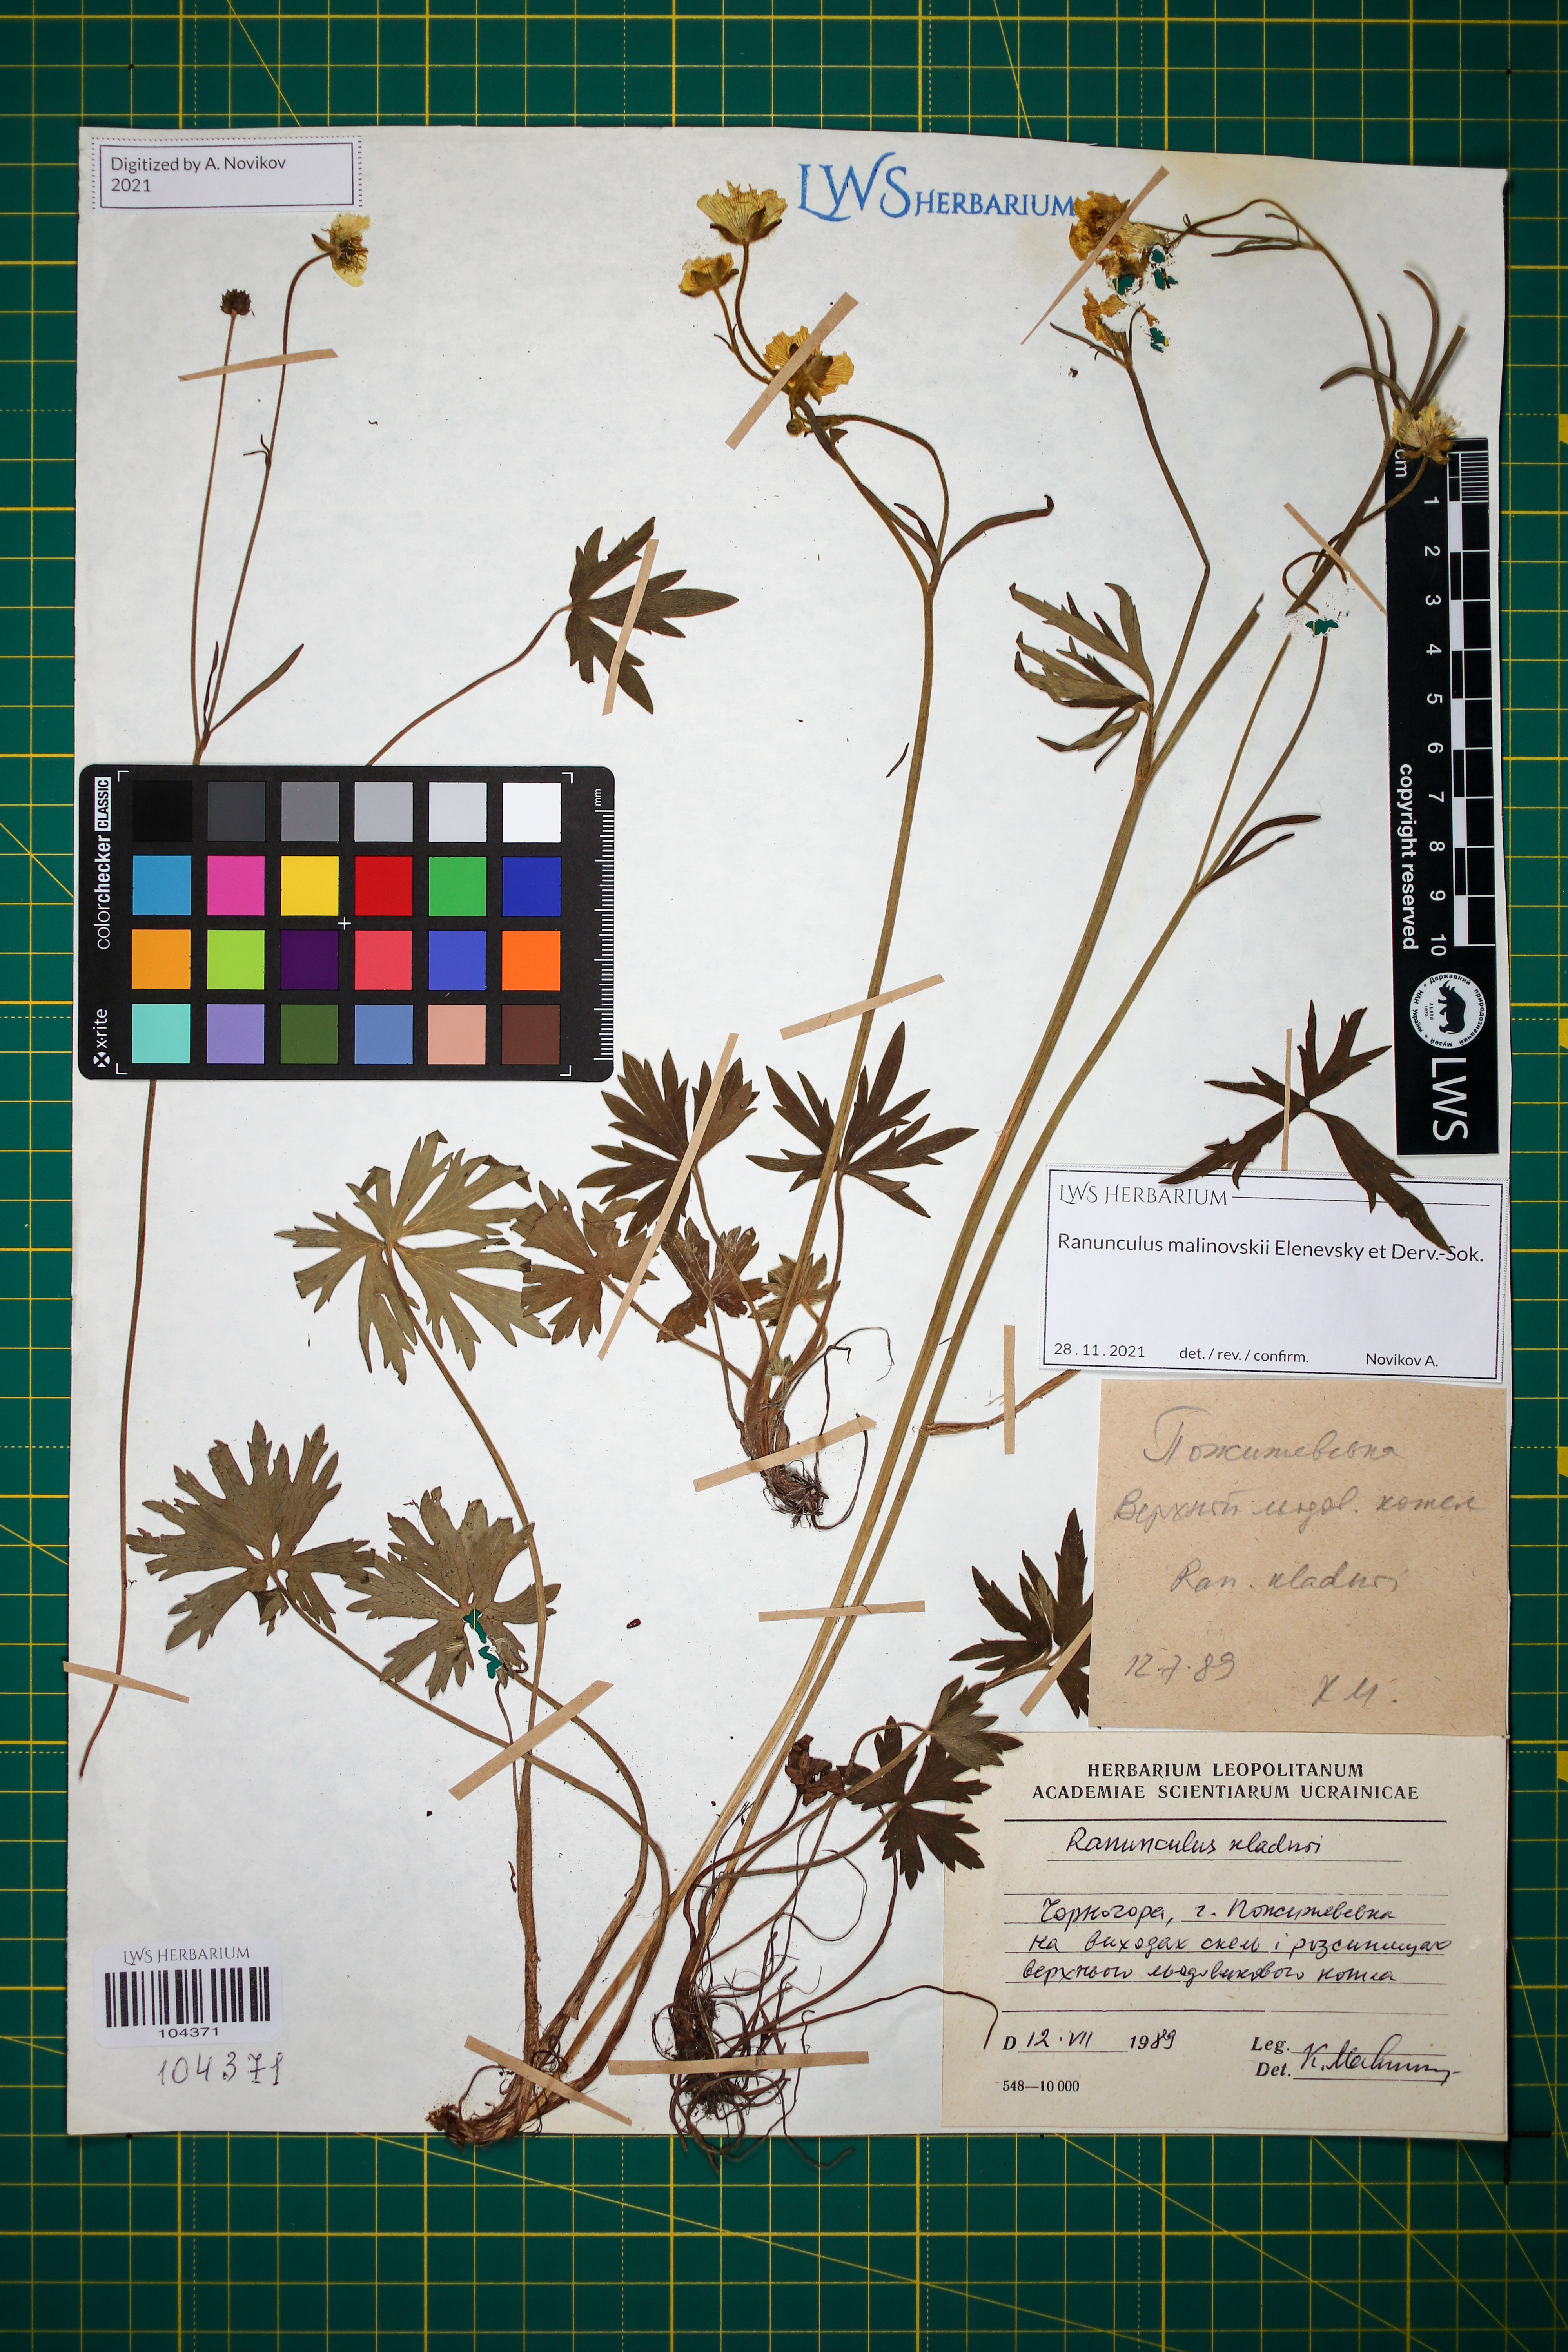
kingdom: Plantae
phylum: Tracheophyta
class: Magnoliopsida
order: Ranunculales
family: Ranunculaceae
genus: Ranunculus
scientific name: Ranunculus malinovskii
